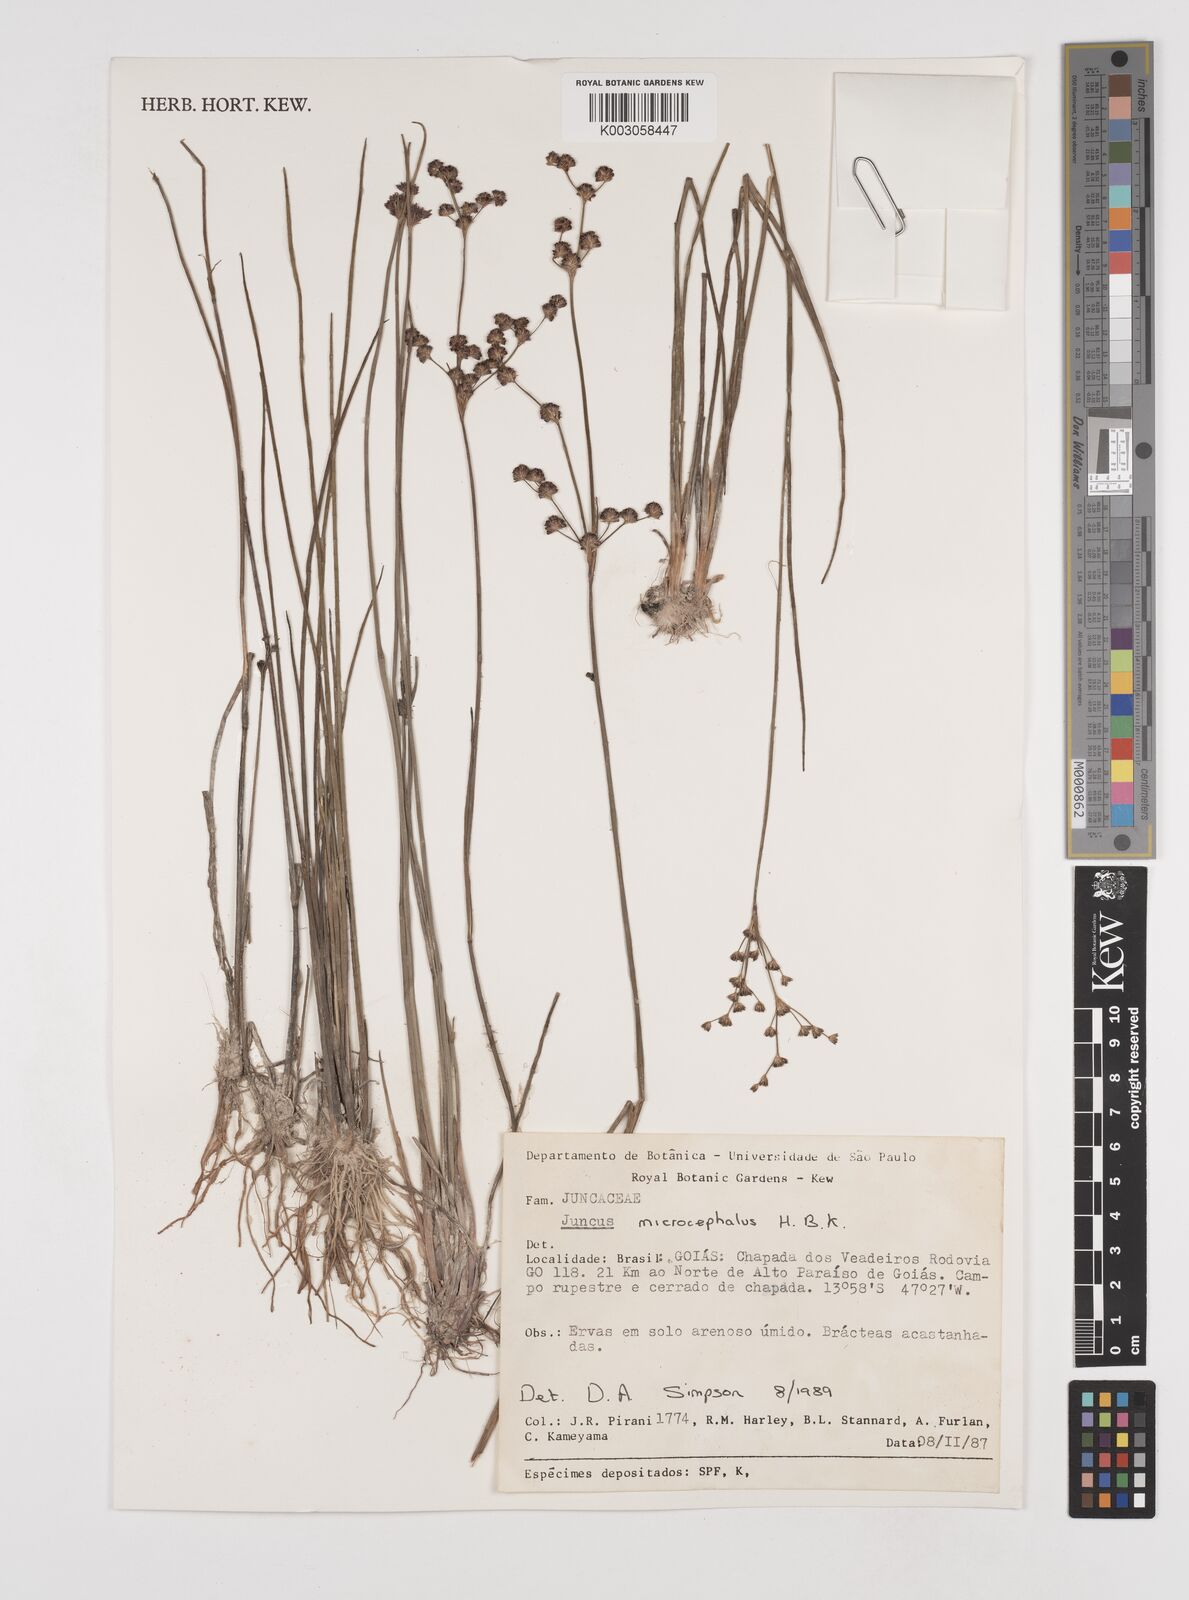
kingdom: Plantae
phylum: Tracheophyta
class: Liliopsida
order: Poales
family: Juncaceae
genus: Juncus
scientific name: Juncus microcephalus
